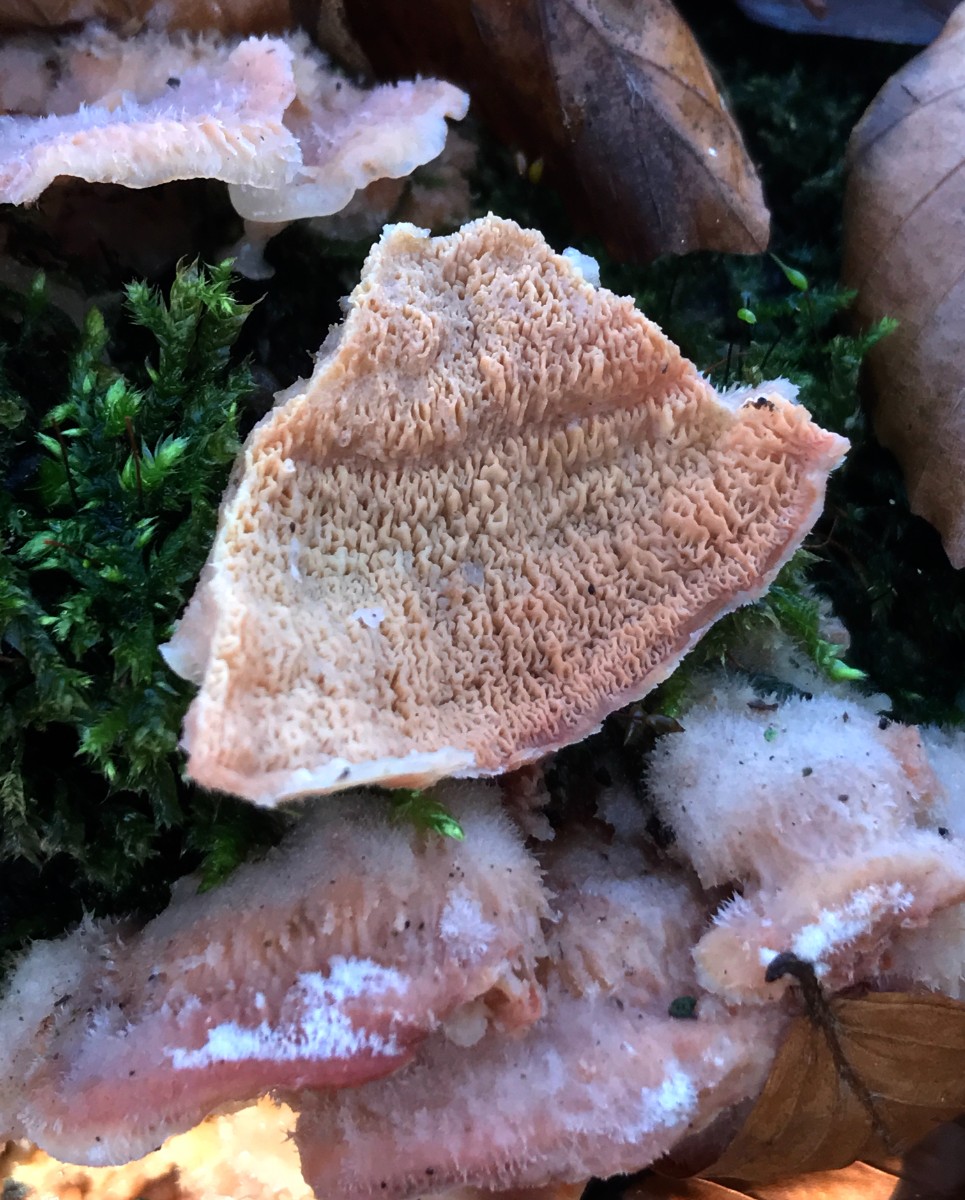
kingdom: Fungi
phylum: Basidiomycota
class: Agaricomycetes
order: Polyporales
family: Meruliaceae
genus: Phlebia
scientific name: Phlebia tremellosa
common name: bævrende åresvamp
